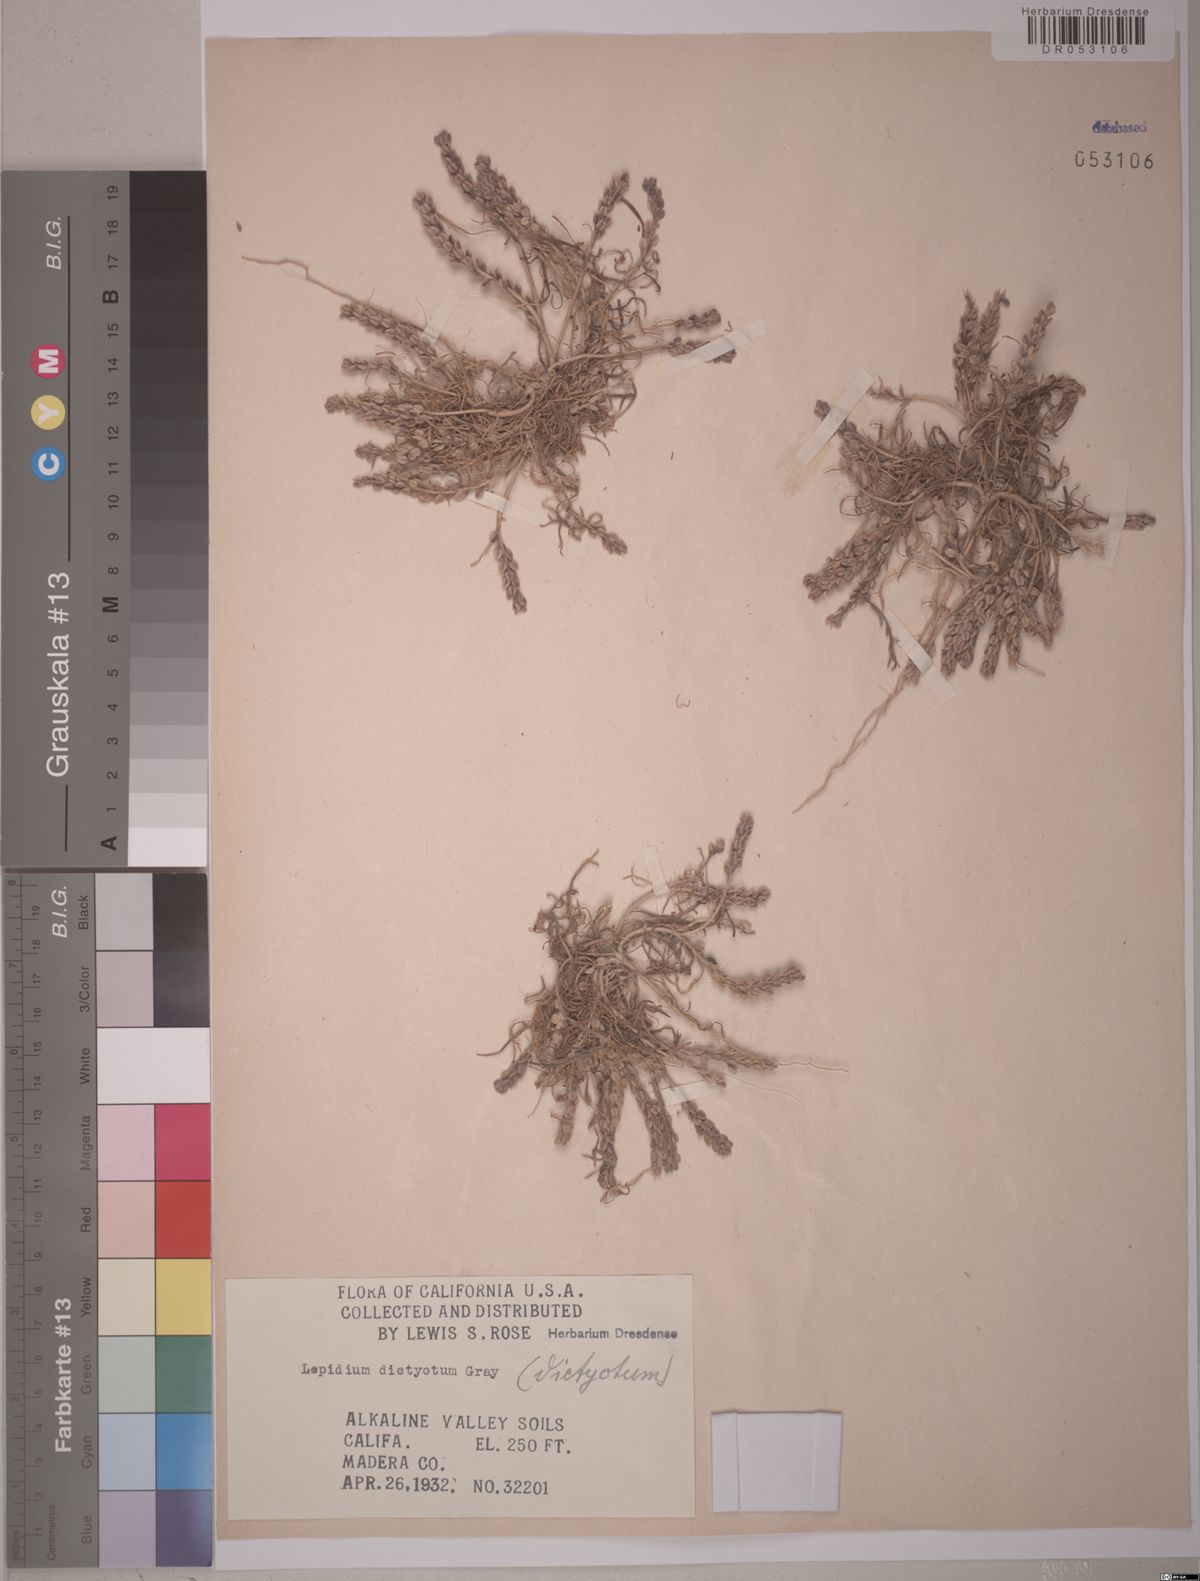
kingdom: Plantae
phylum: Tracheophyta
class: Magnoliopsida
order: Brassicales
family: Brassicaceae
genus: Lepidium
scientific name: Lepidium dictyotum
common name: Alkali pepperwort
